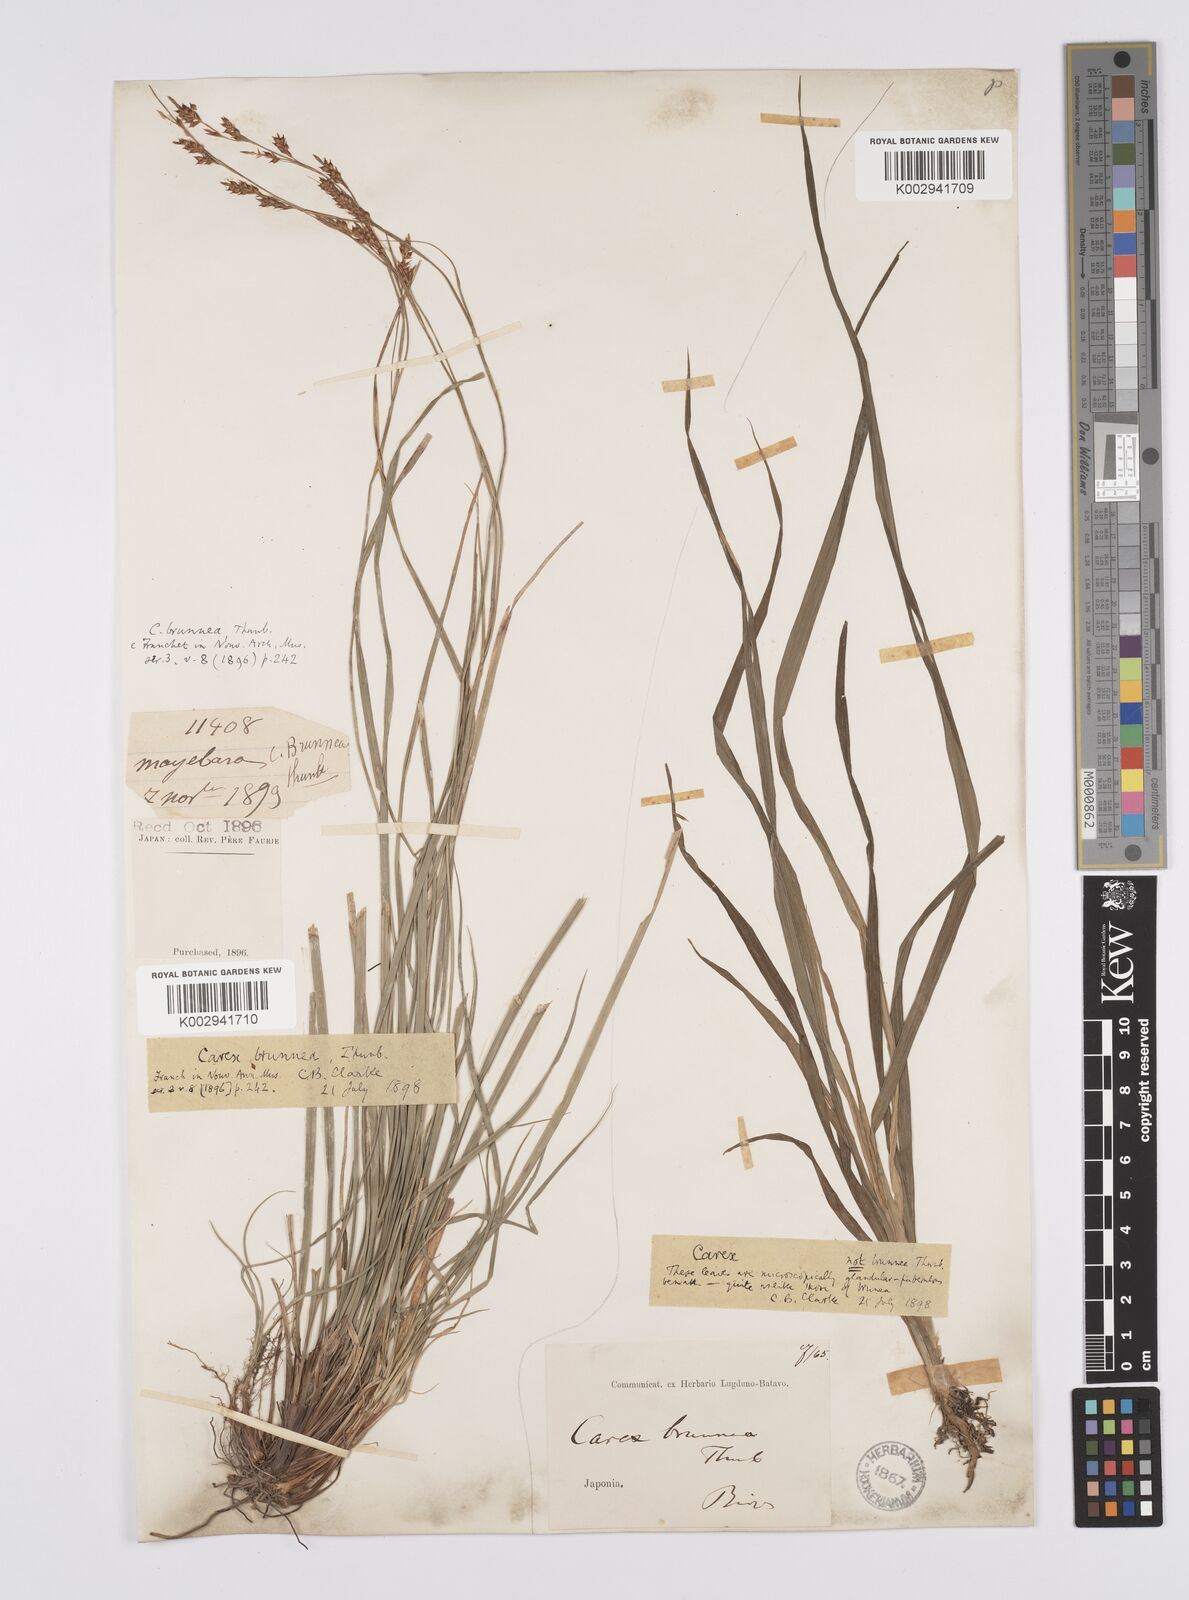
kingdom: Plantae
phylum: Tracheophyta
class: Liliopsida
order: Poales
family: Cyperaceae
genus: Carex
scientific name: Carex brunnea
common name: Greater brown sedge
